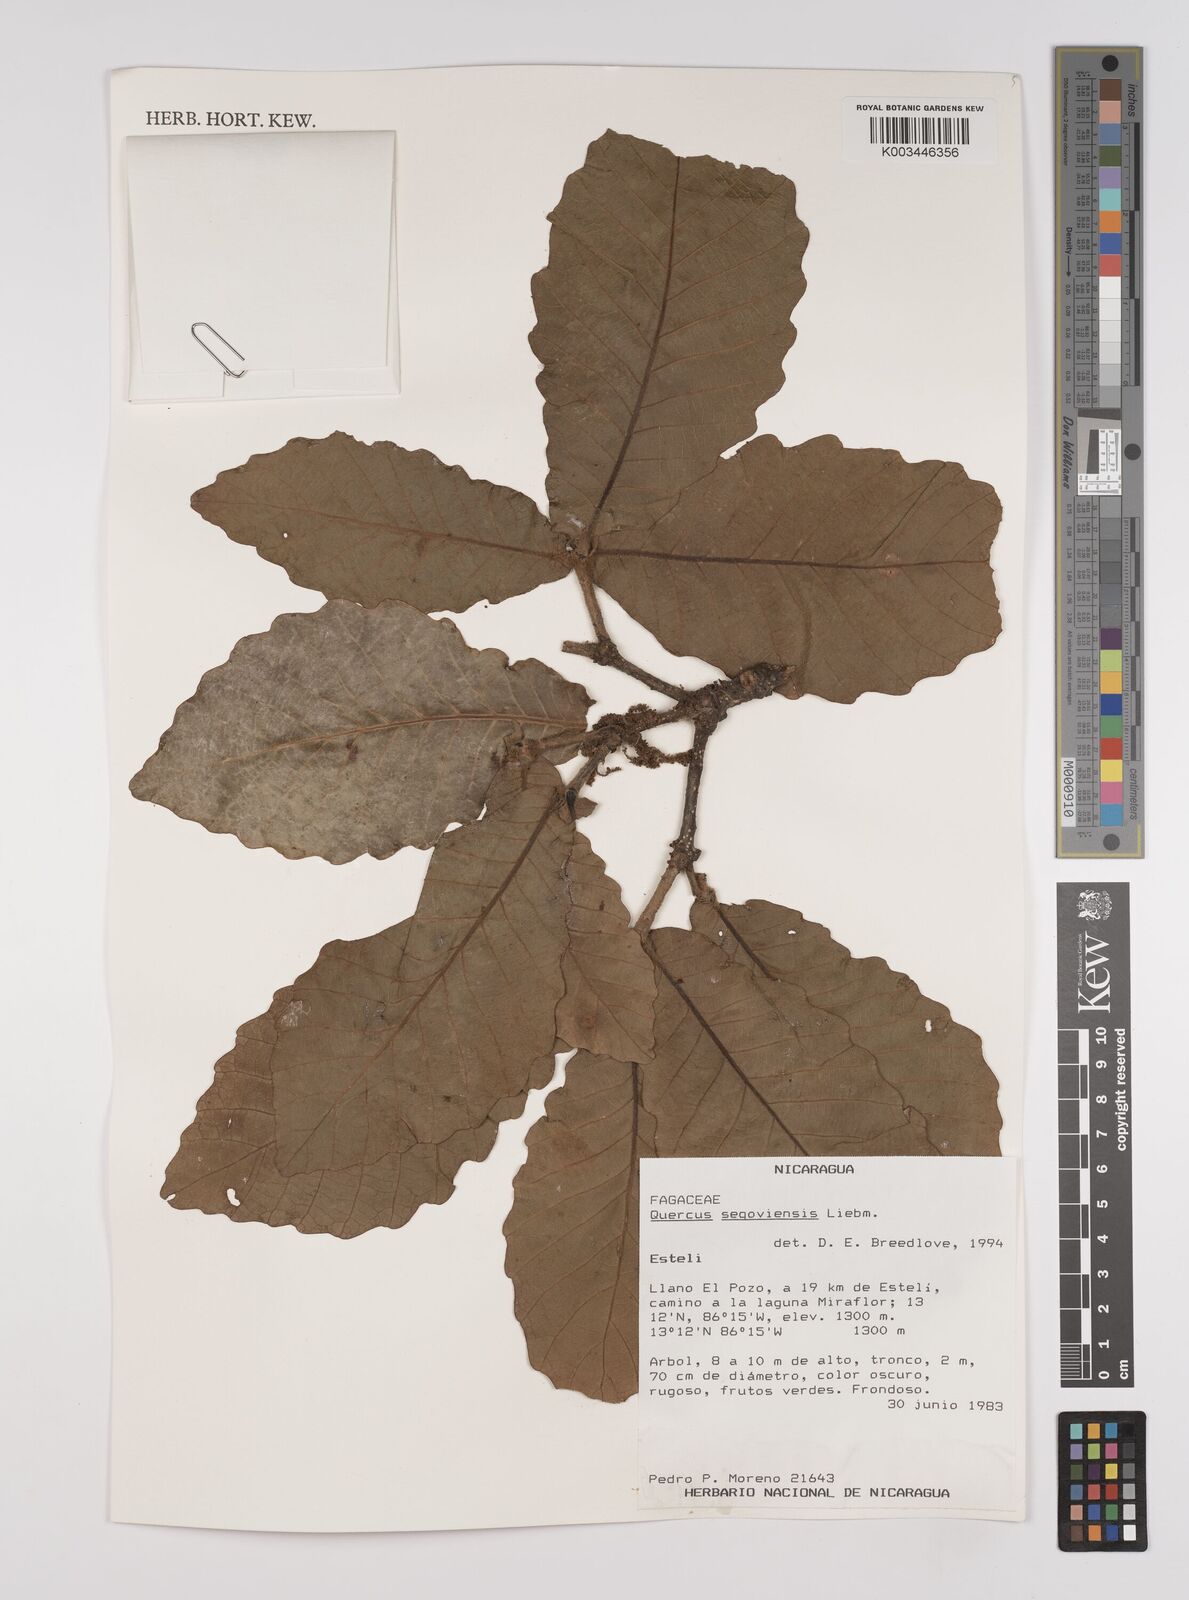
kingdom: Plantae
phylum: Tracheophyta
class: Magnoliopsida
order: Fagales
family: Fagaceae
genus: Quercus
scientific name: Quercus segoviensis
